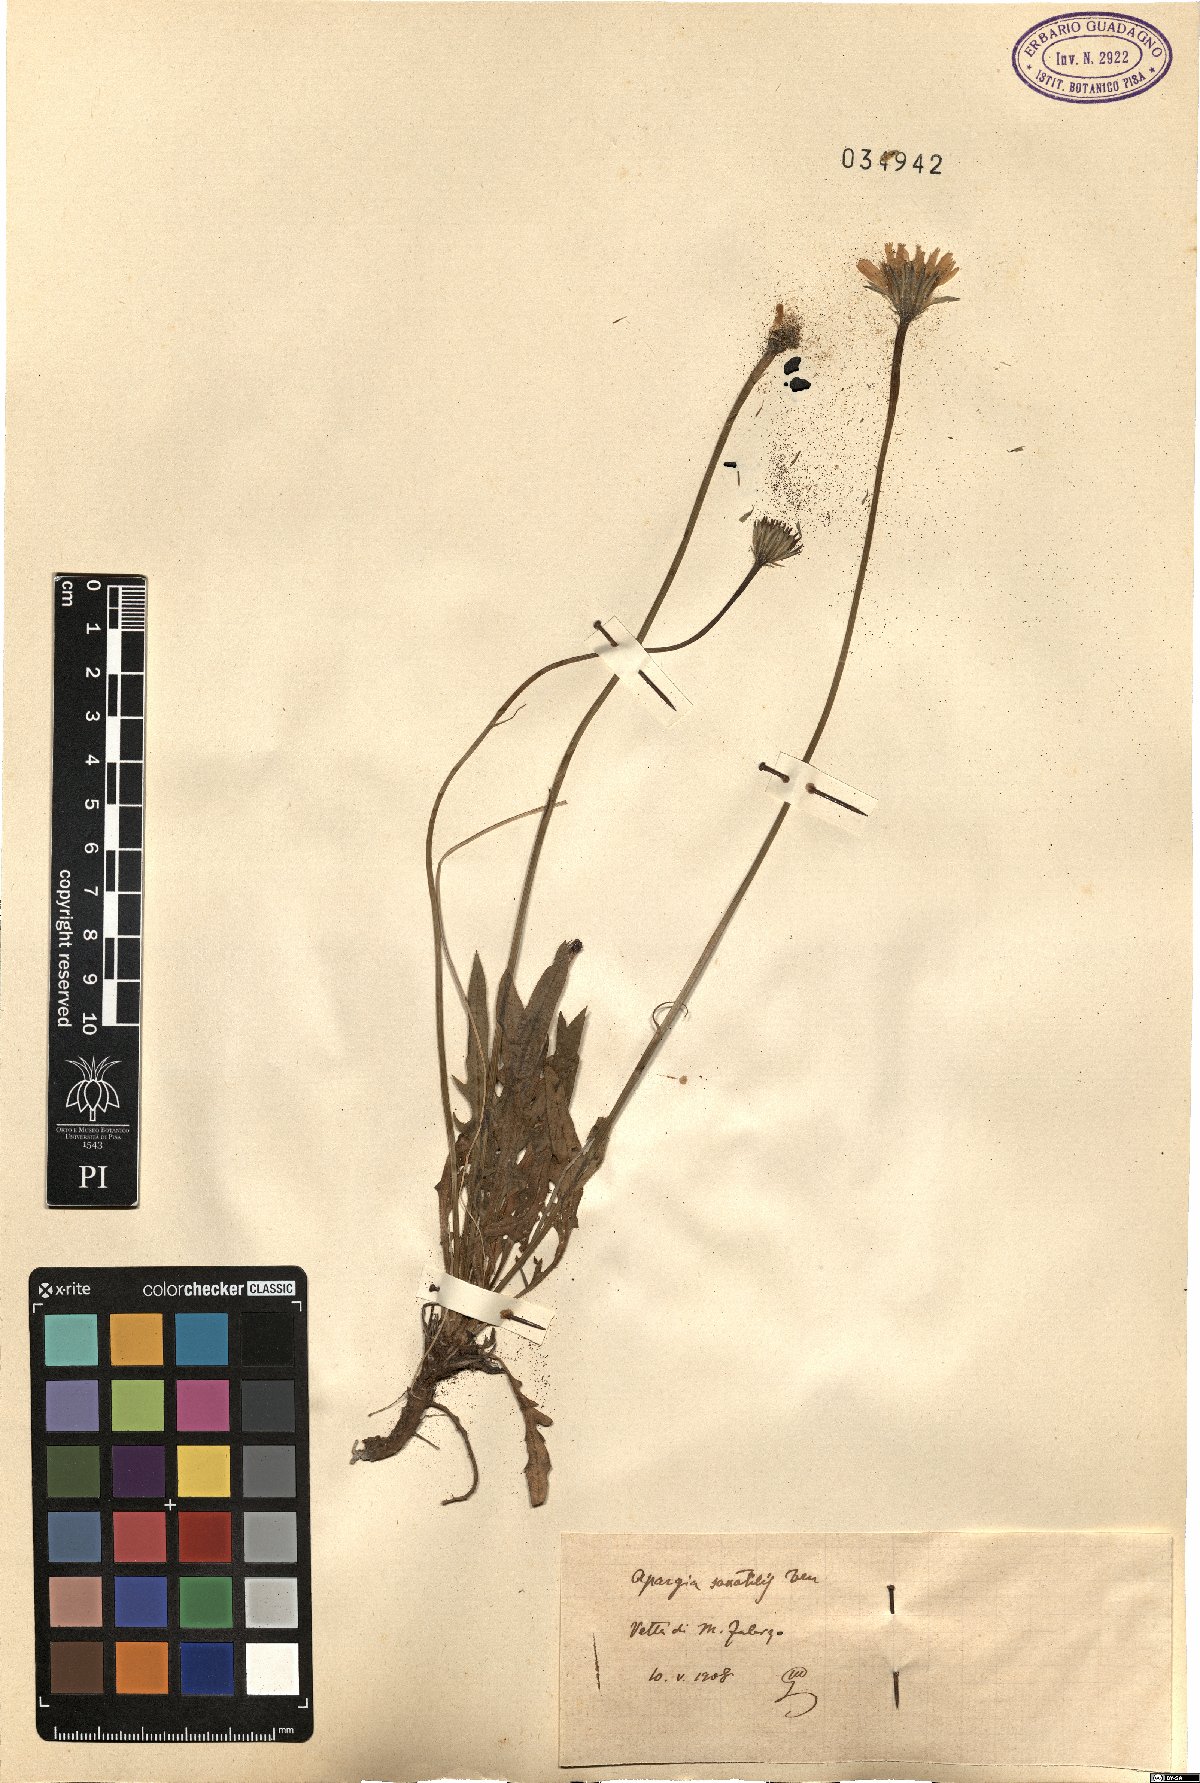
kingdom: Plantae
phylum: Tracheophyta
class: Magnoliopsida
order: Asterales
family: Asteraceae
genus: Leontodon
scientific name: Leontodon crispus
